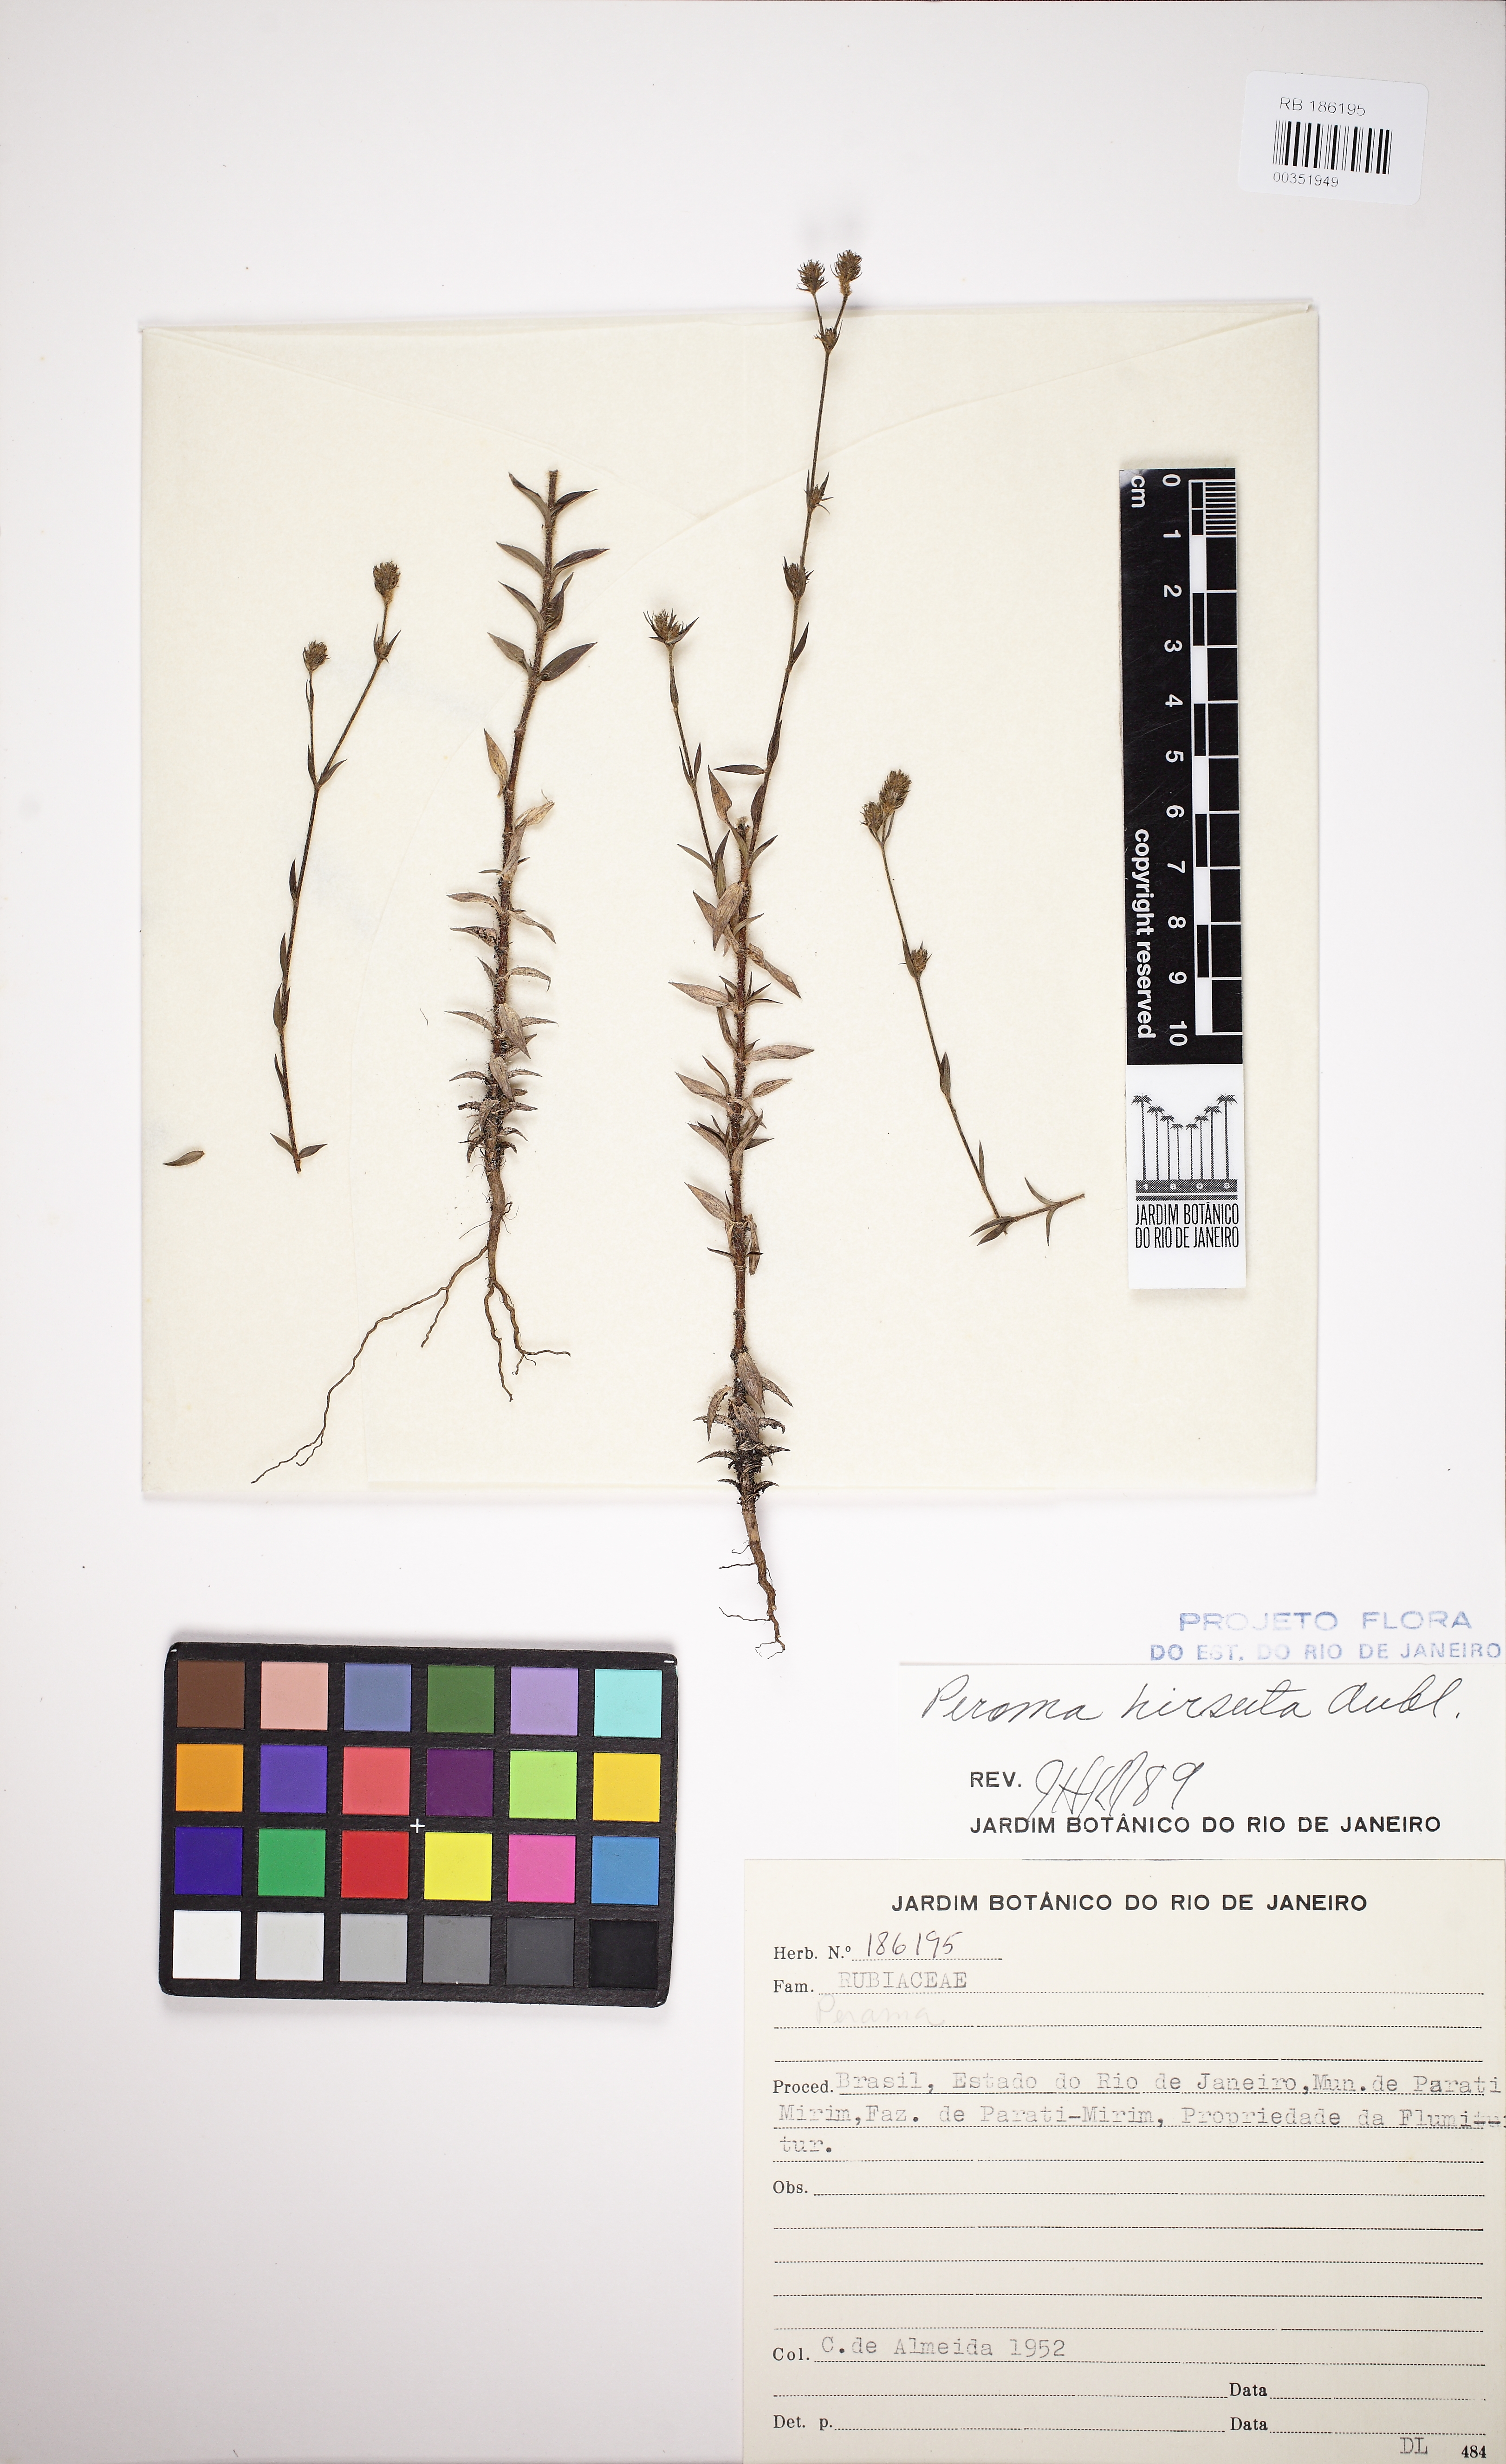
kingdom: Plantae
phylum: Tracheophyta
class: Magnoliopsida
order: Gentianales
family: Rubiaceae
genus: Perama
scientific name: Perama hirsuta
